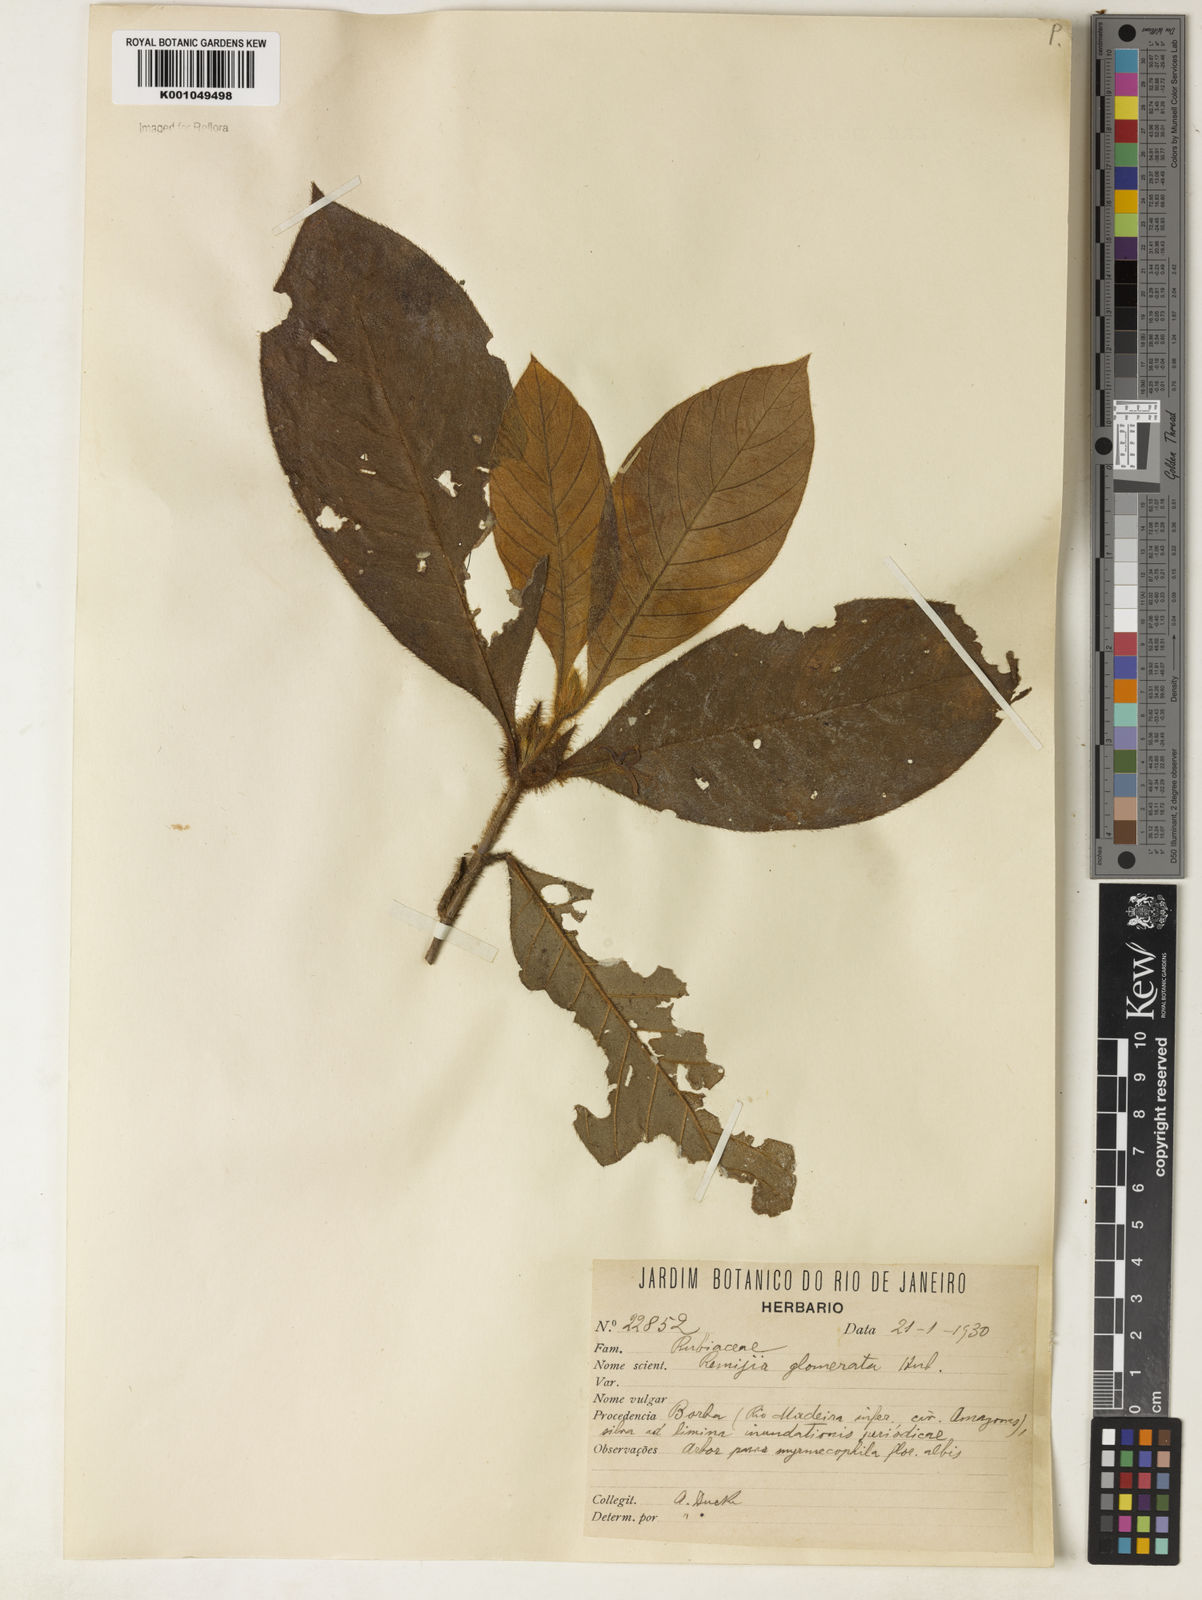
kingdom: Plantae
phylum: Tracheophyta
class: Magnoliopsida
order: Gentianales
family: Rubiaceae
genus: Remijia
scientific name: Remijia glomerata
